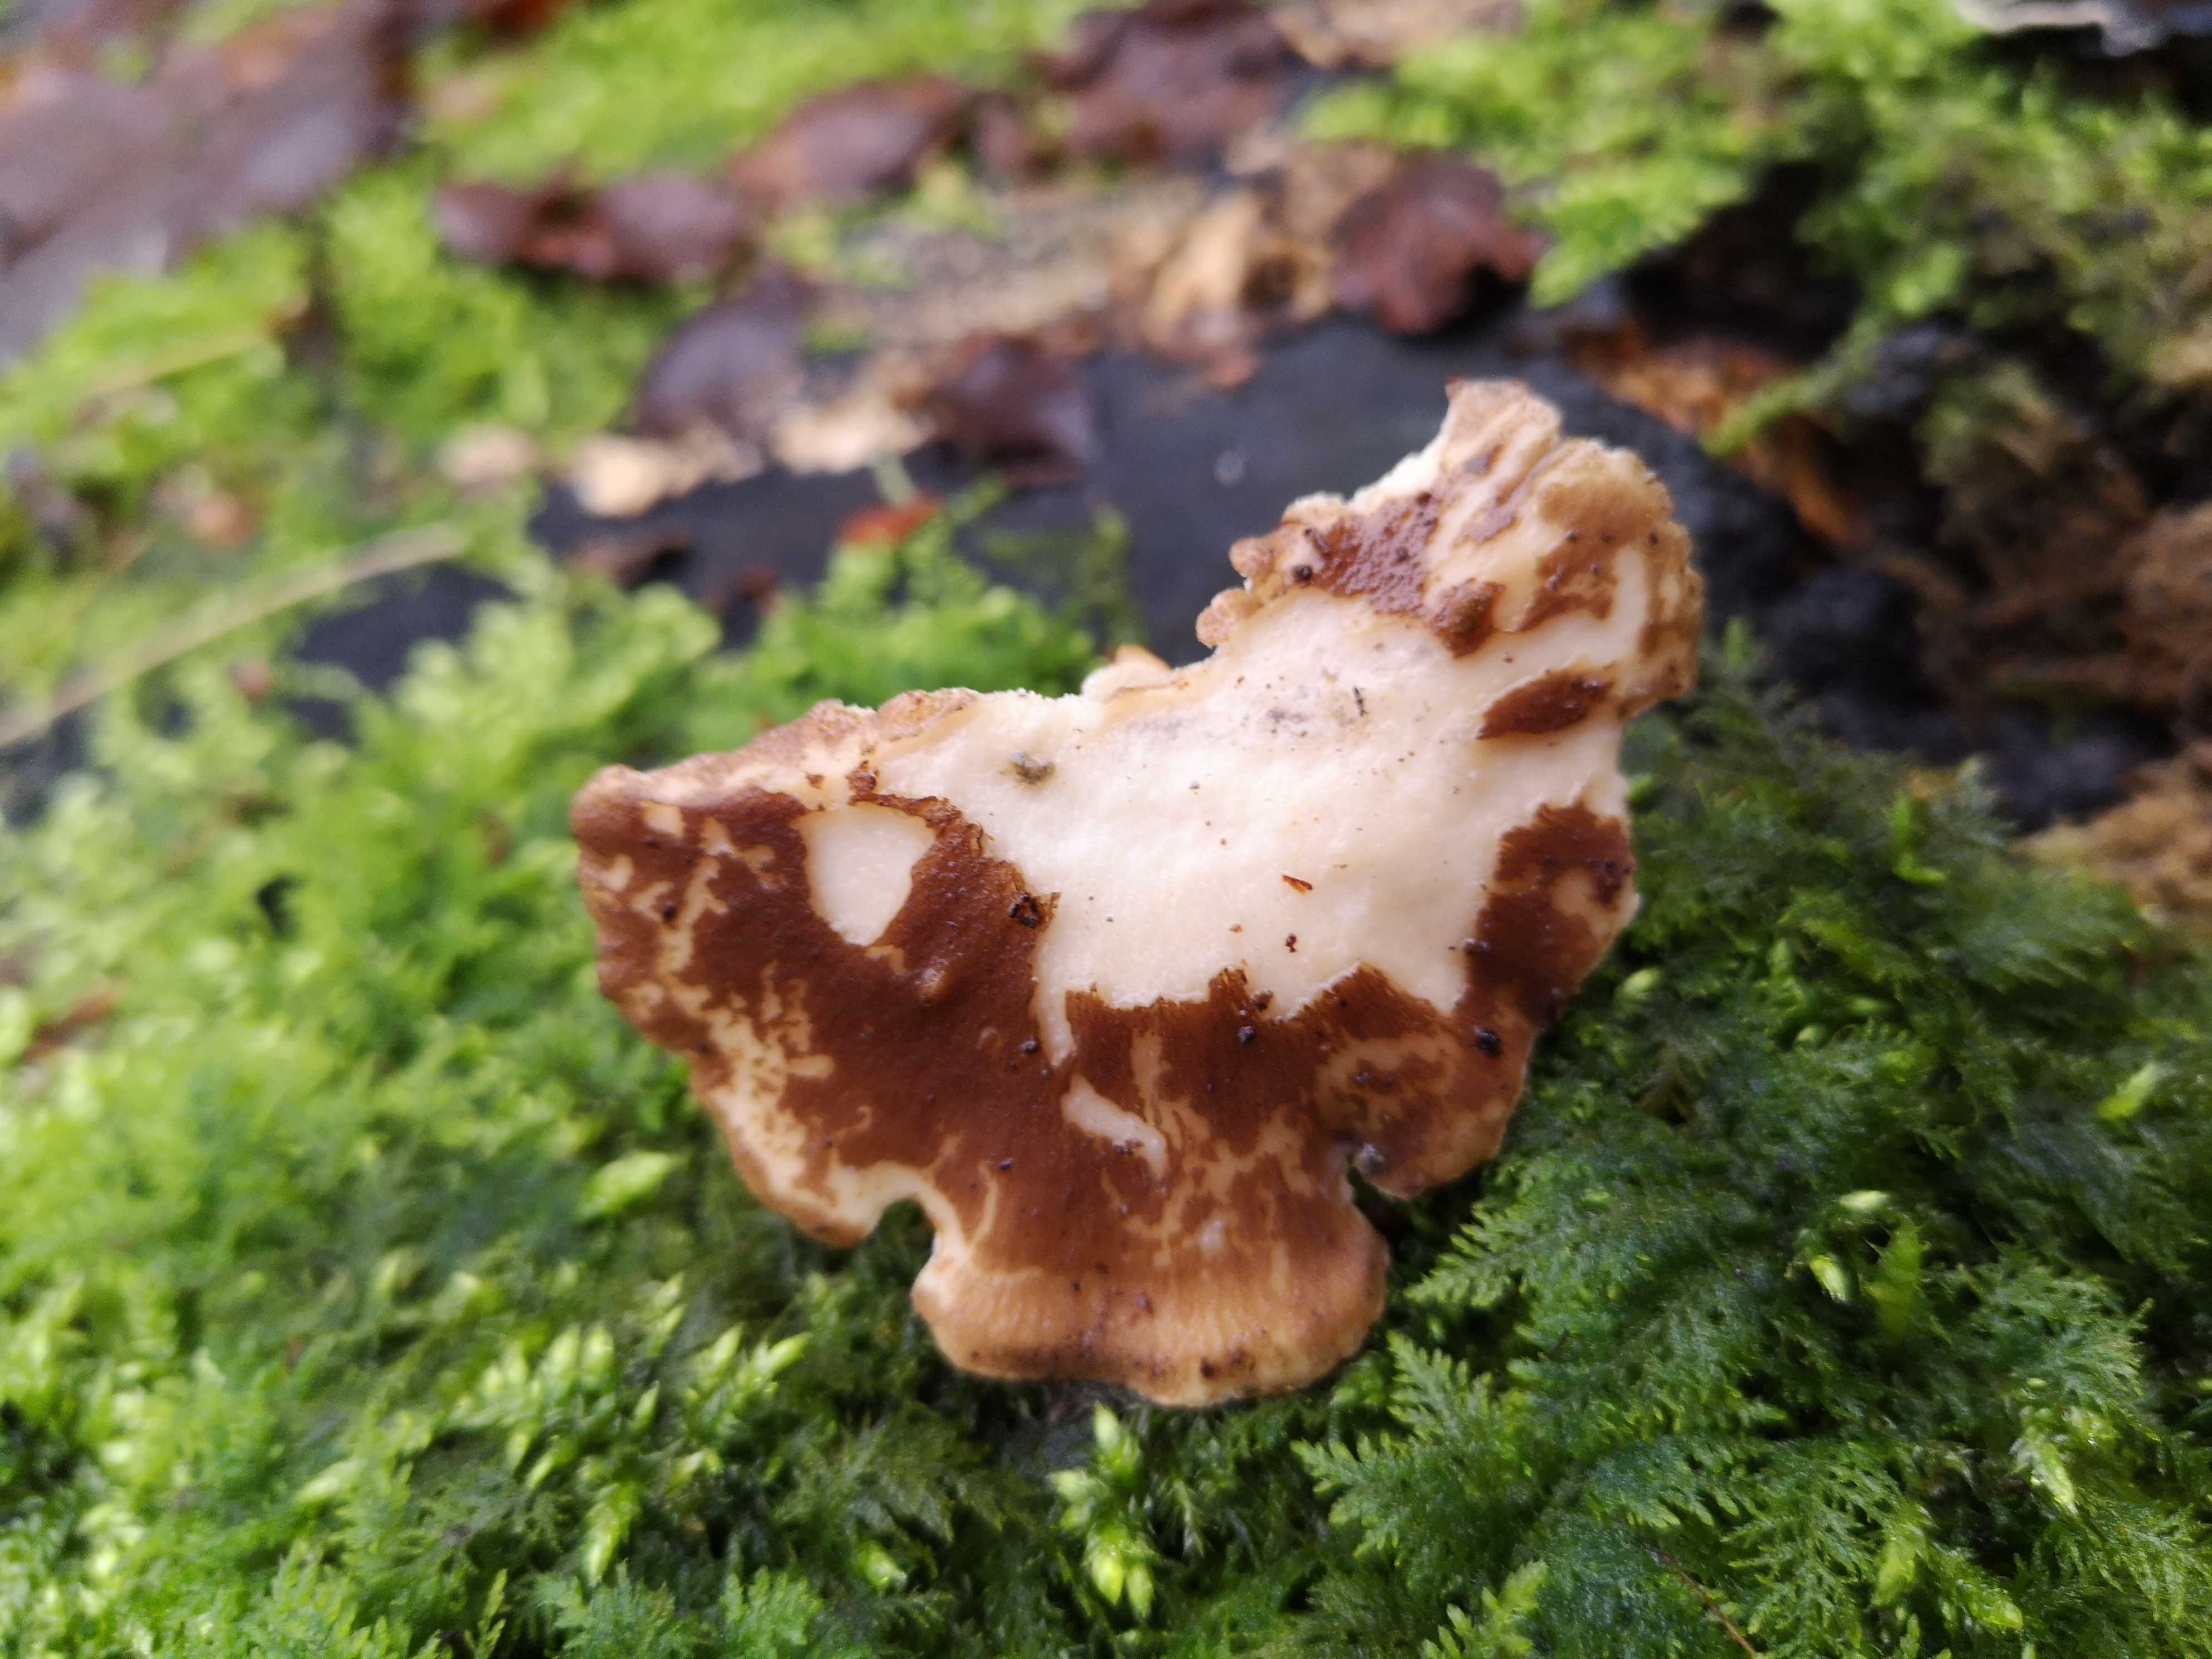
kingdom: Fungi
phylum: Basidiomycota
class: Agaricomycetes
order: Polyporales
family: Polyporaceae
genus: Lentinus
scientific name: Lentinus brumalis
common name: vinter-stilkporesvamp
